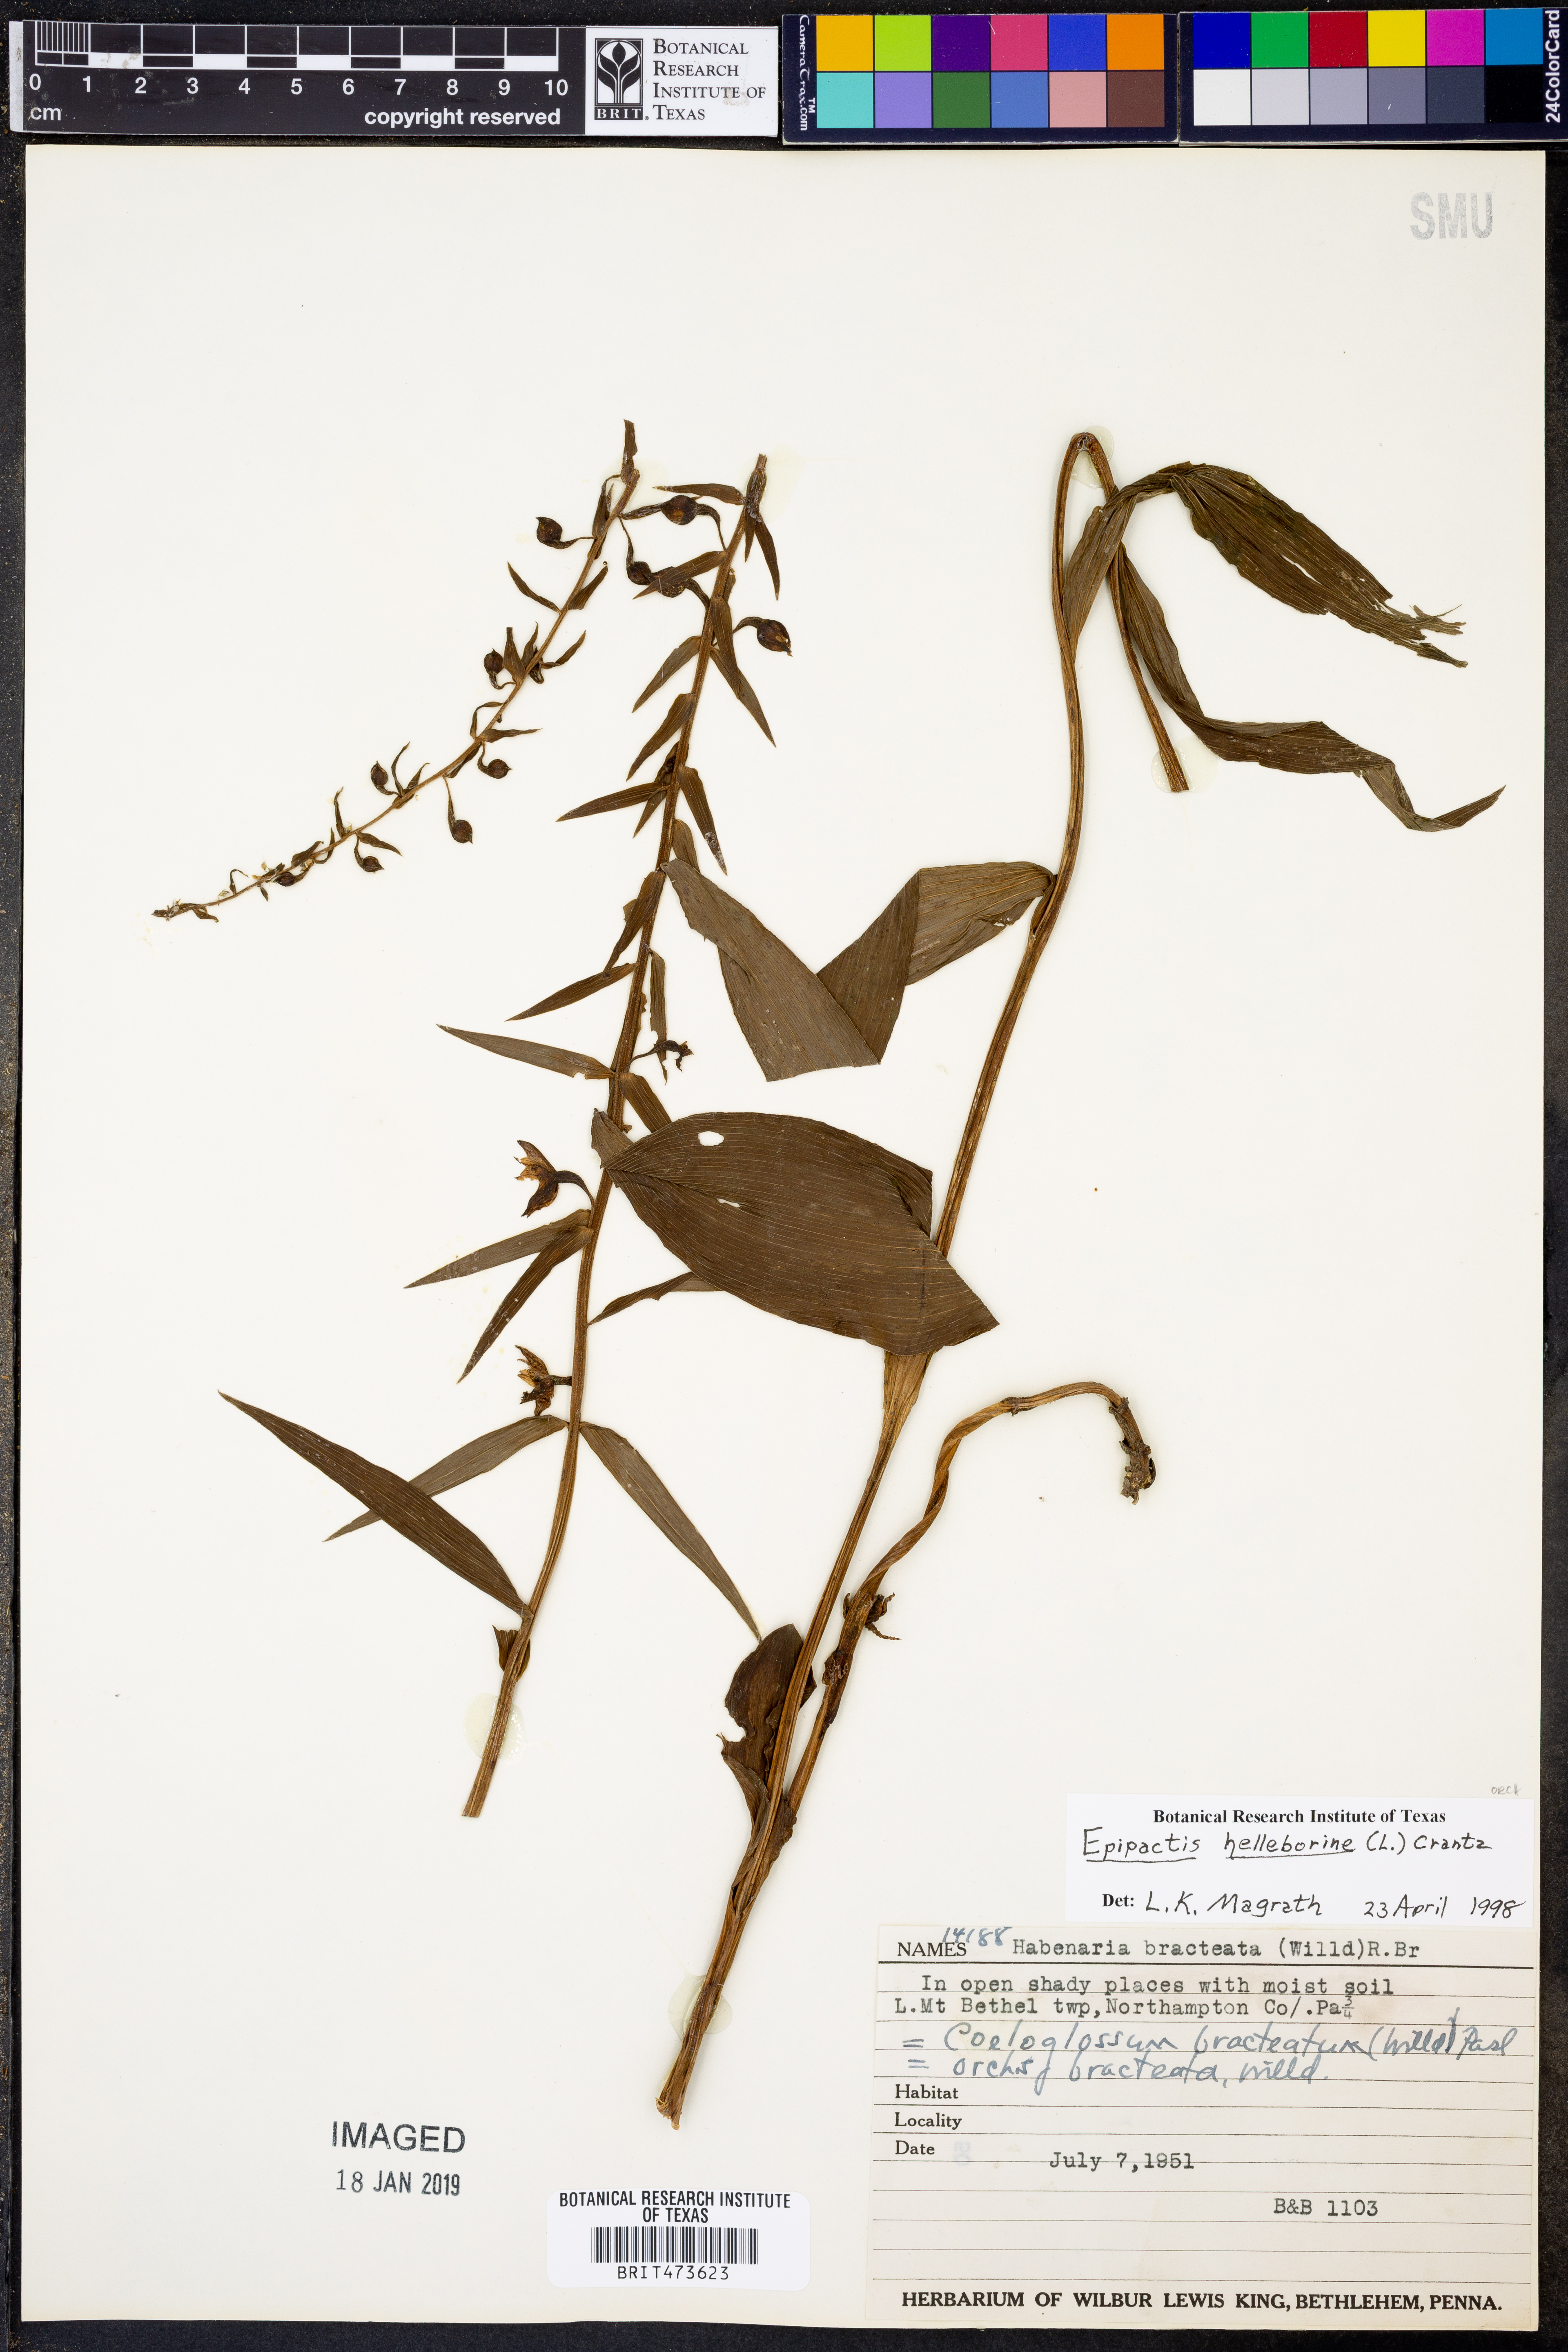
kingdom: Plantae
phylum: Tracheophyta
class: Liliopsida
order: Asparagales
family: Orchidaceae
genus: Epipactis
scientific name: Epipactis helleborine
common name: Broad-leaved helleborine
